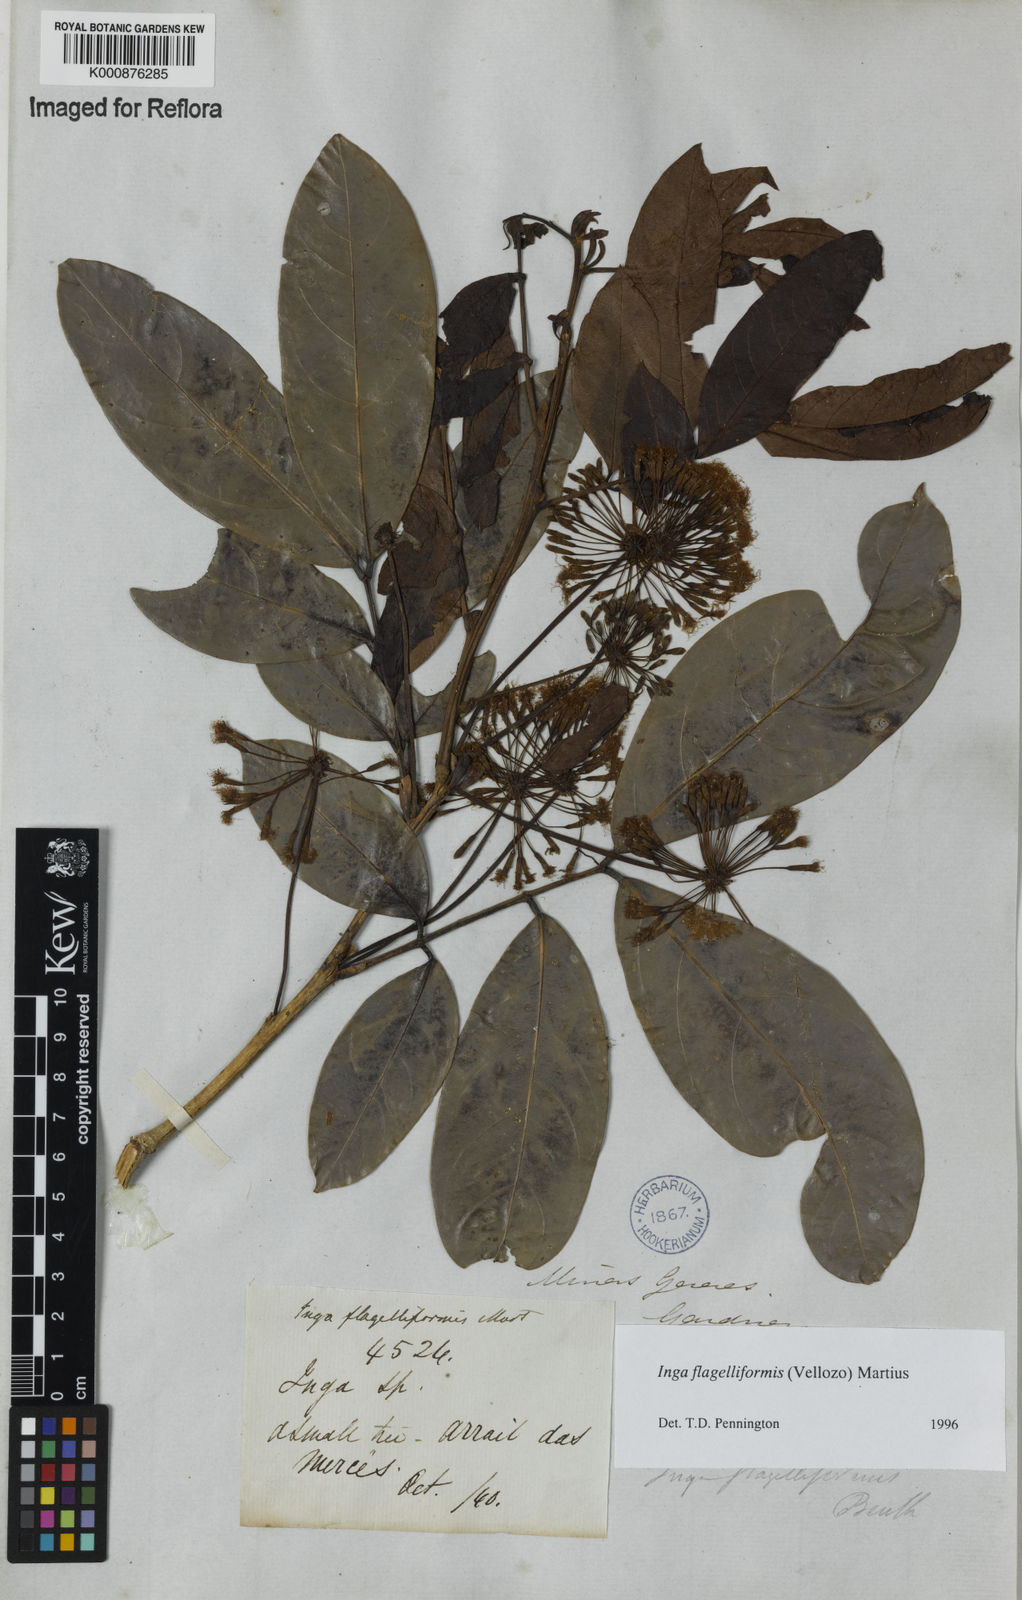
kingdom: Plantae
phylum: Tracheophyta
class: Magnoliopsida
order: Fabales
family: Fabaceae
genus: Inga
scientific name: Inga flagelliformis
